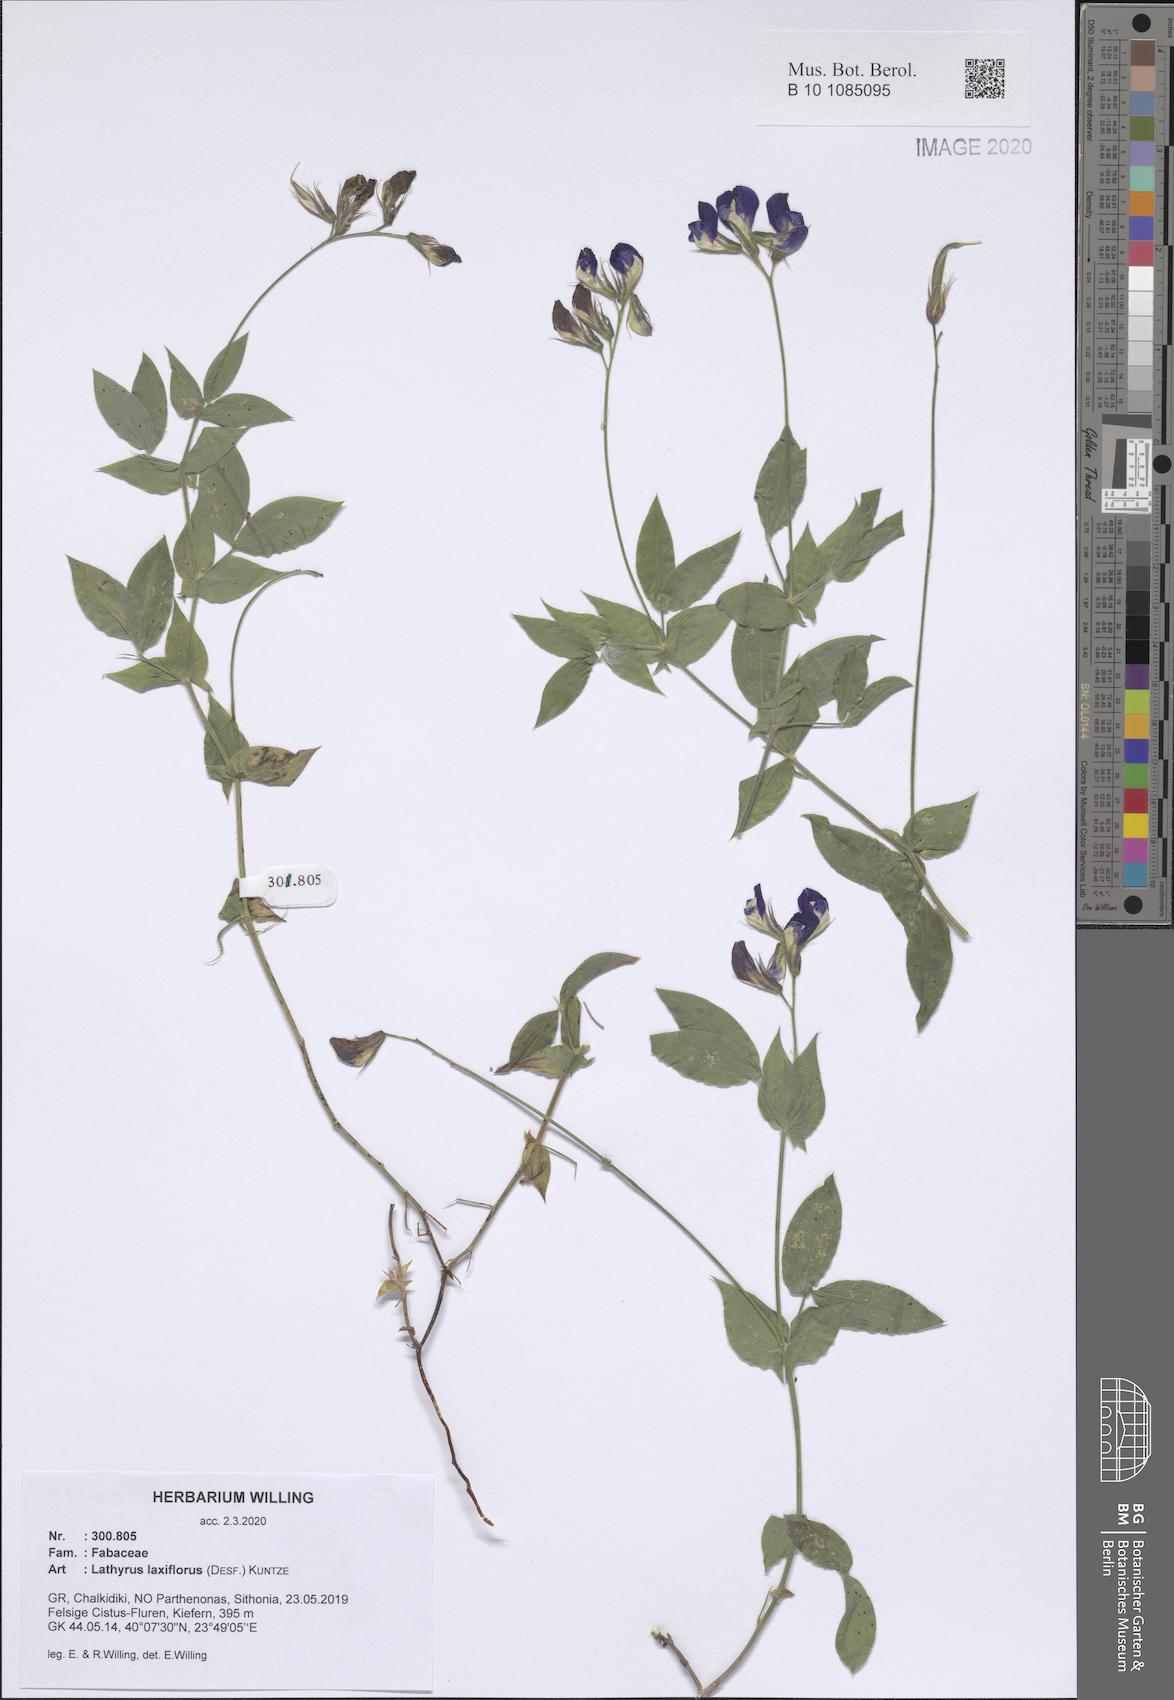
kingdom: Plantae
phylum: Tracheophyta
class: Magnoliopsida
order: Fabales
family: Fabaceae
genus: Lathyrus
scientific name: Lathyrus laxiflorus
